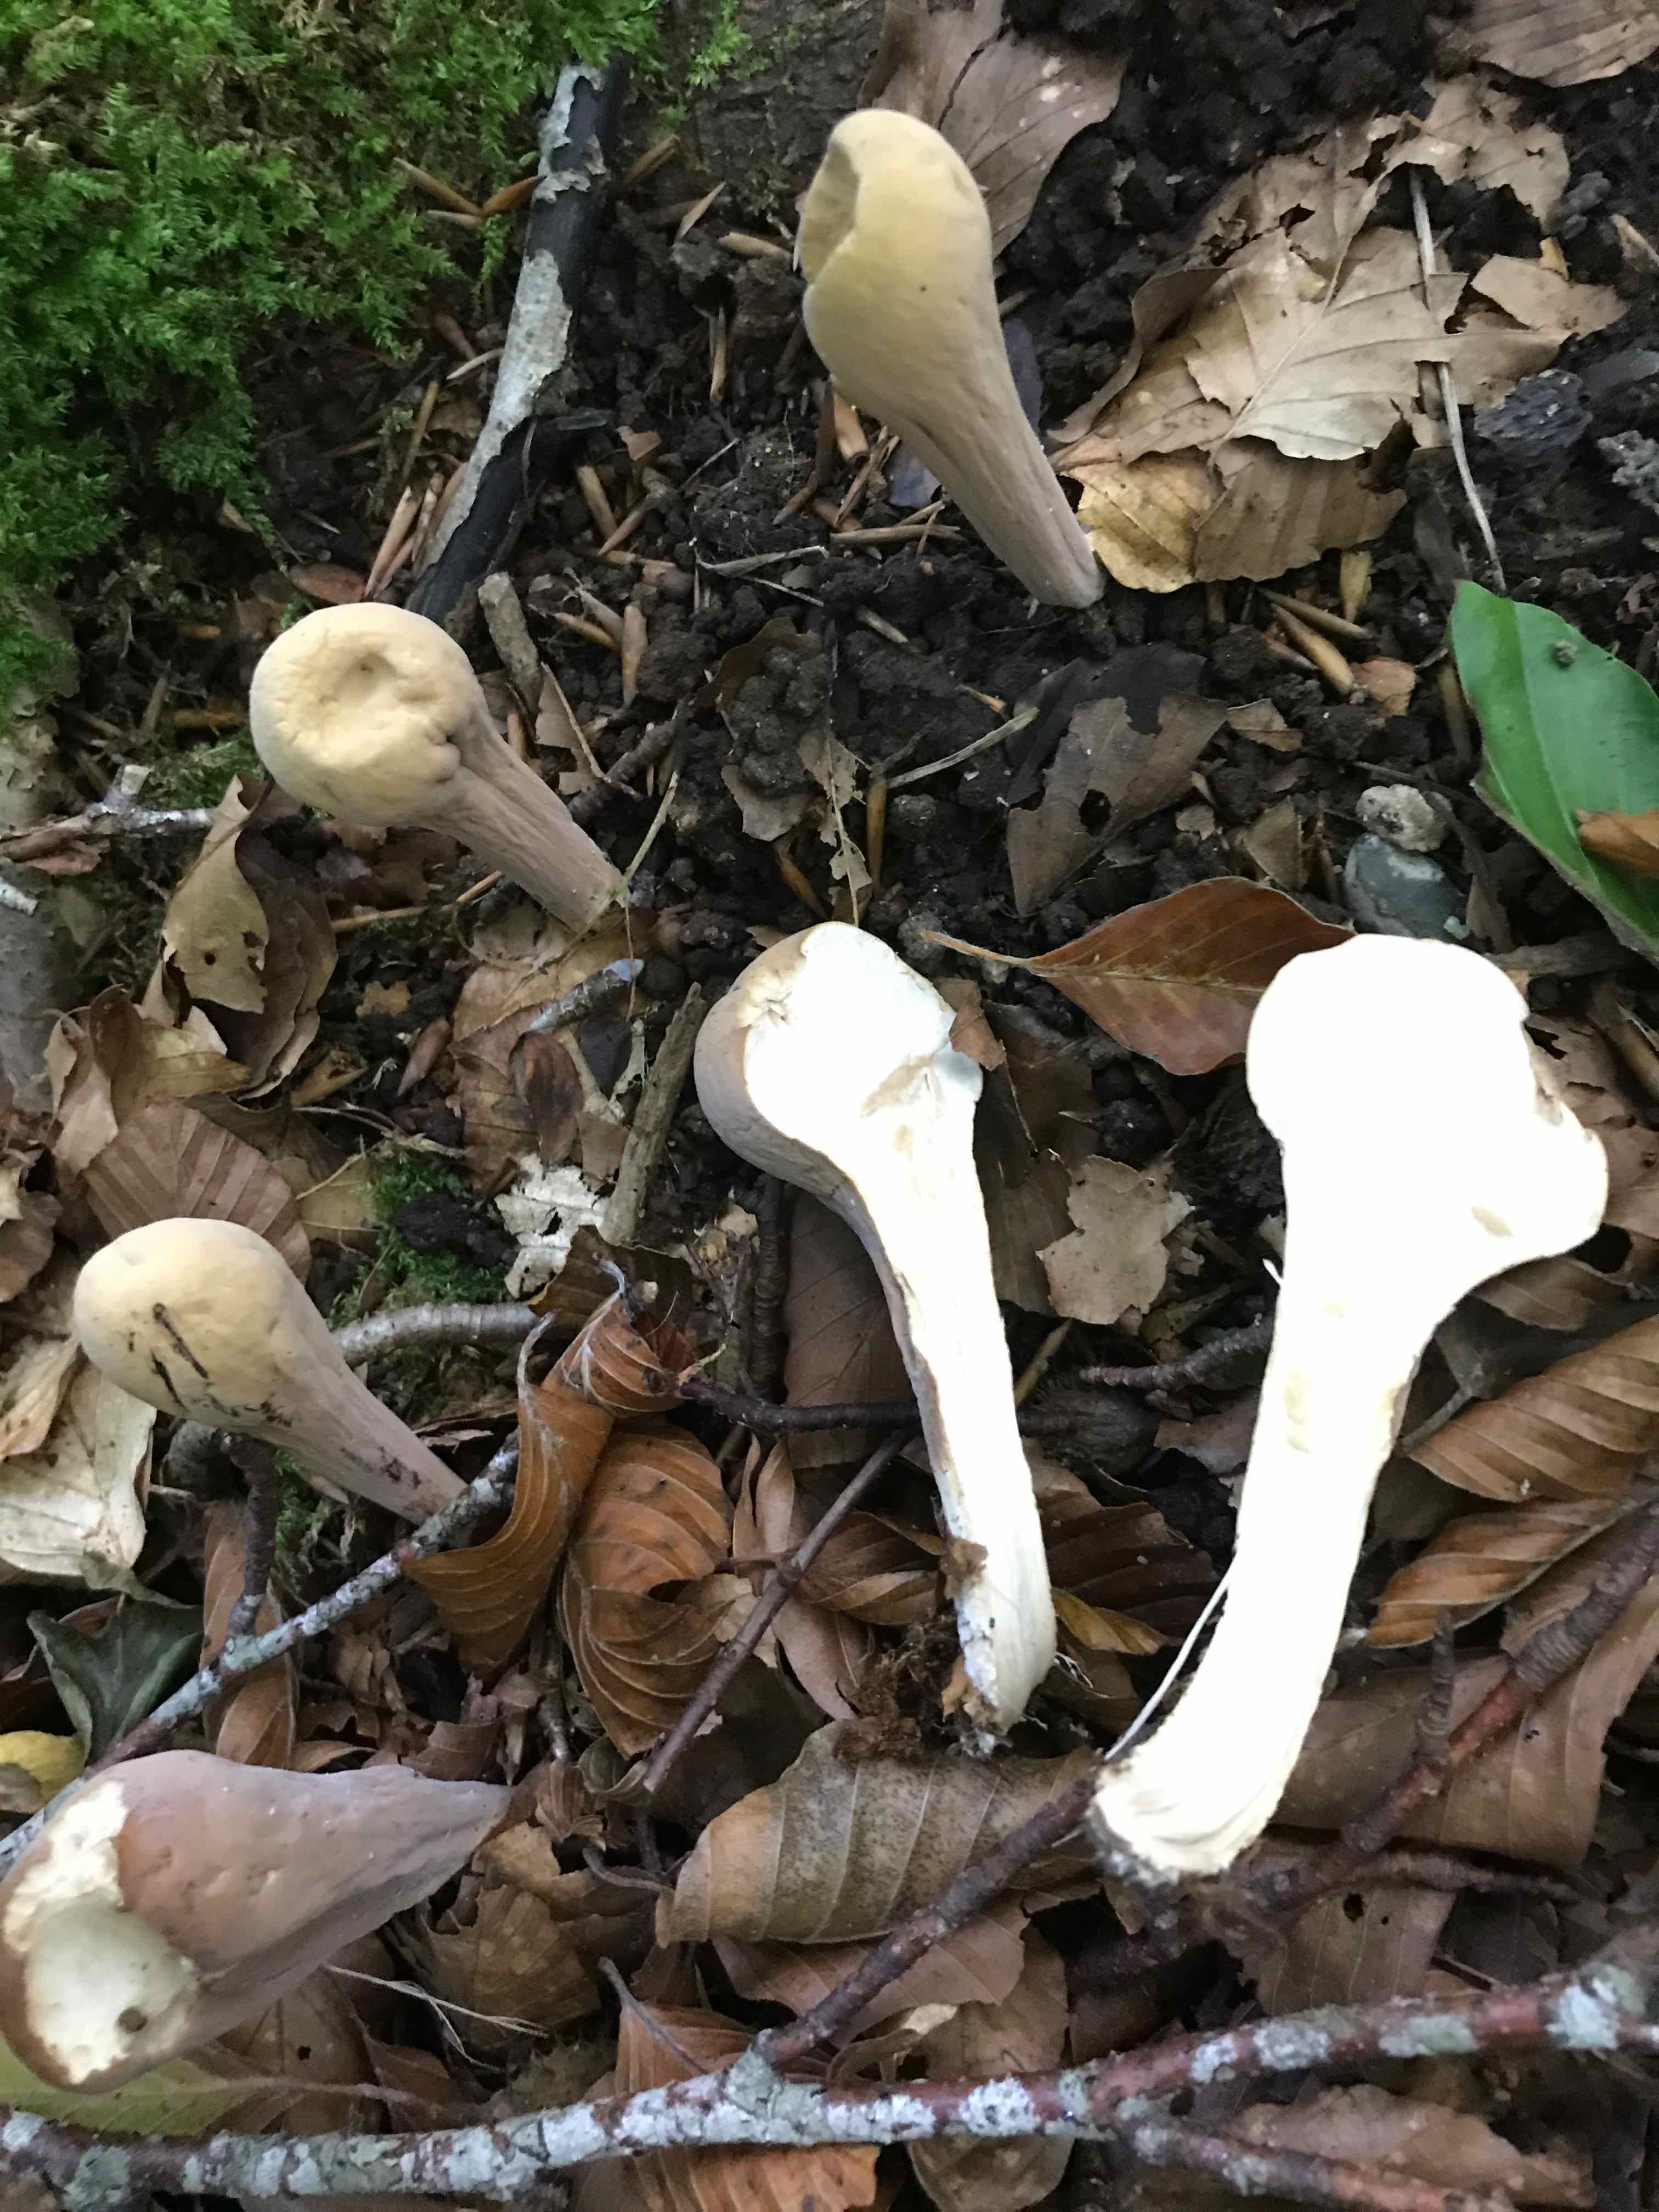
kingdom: Fungi
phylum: Basidiomycota
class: Agaricomycetes
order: Gomphales
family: Clavariadelphaceae
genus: Clavariadelphus
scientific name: Clavariadelphus pistillaris
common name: herkules-kæmpekølle
